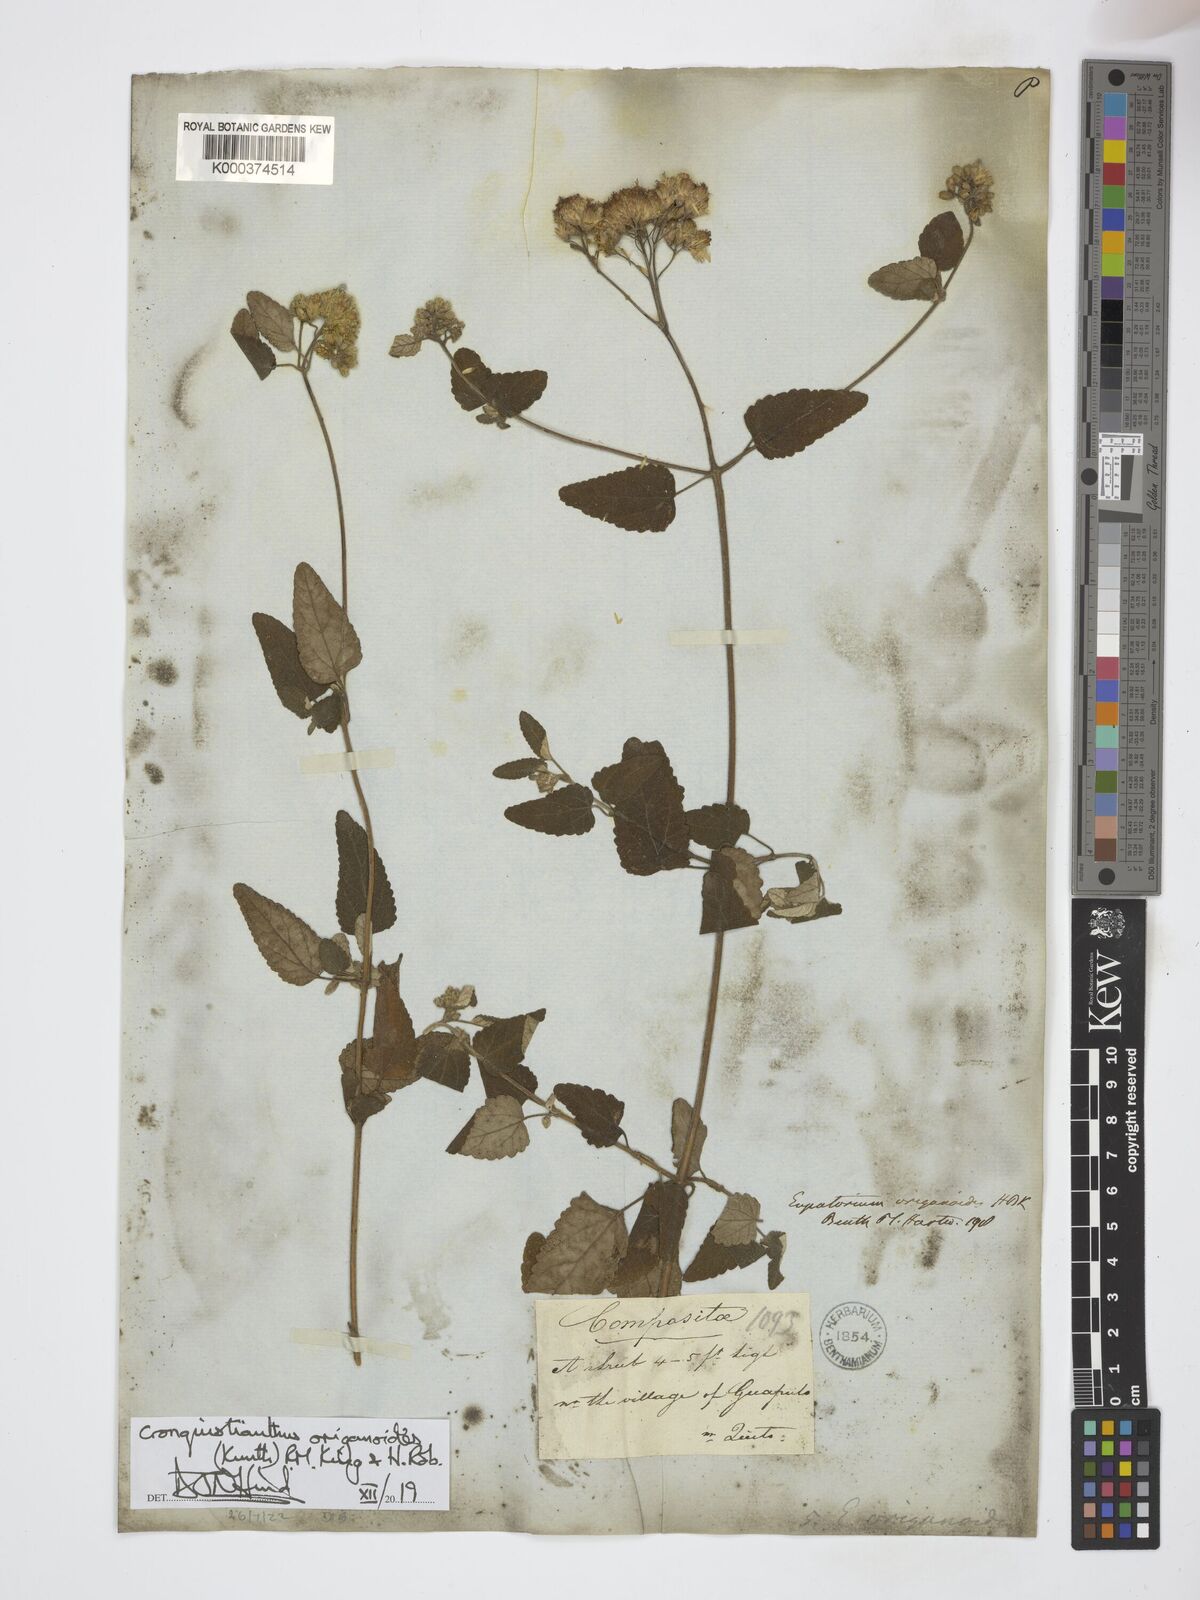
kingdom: Plantae
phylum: Tracheophyta
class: Magnoliopsida
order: Asterales
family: Asteraceae
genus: Cronquistianthus
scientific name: Cronquistianthus origanoides
